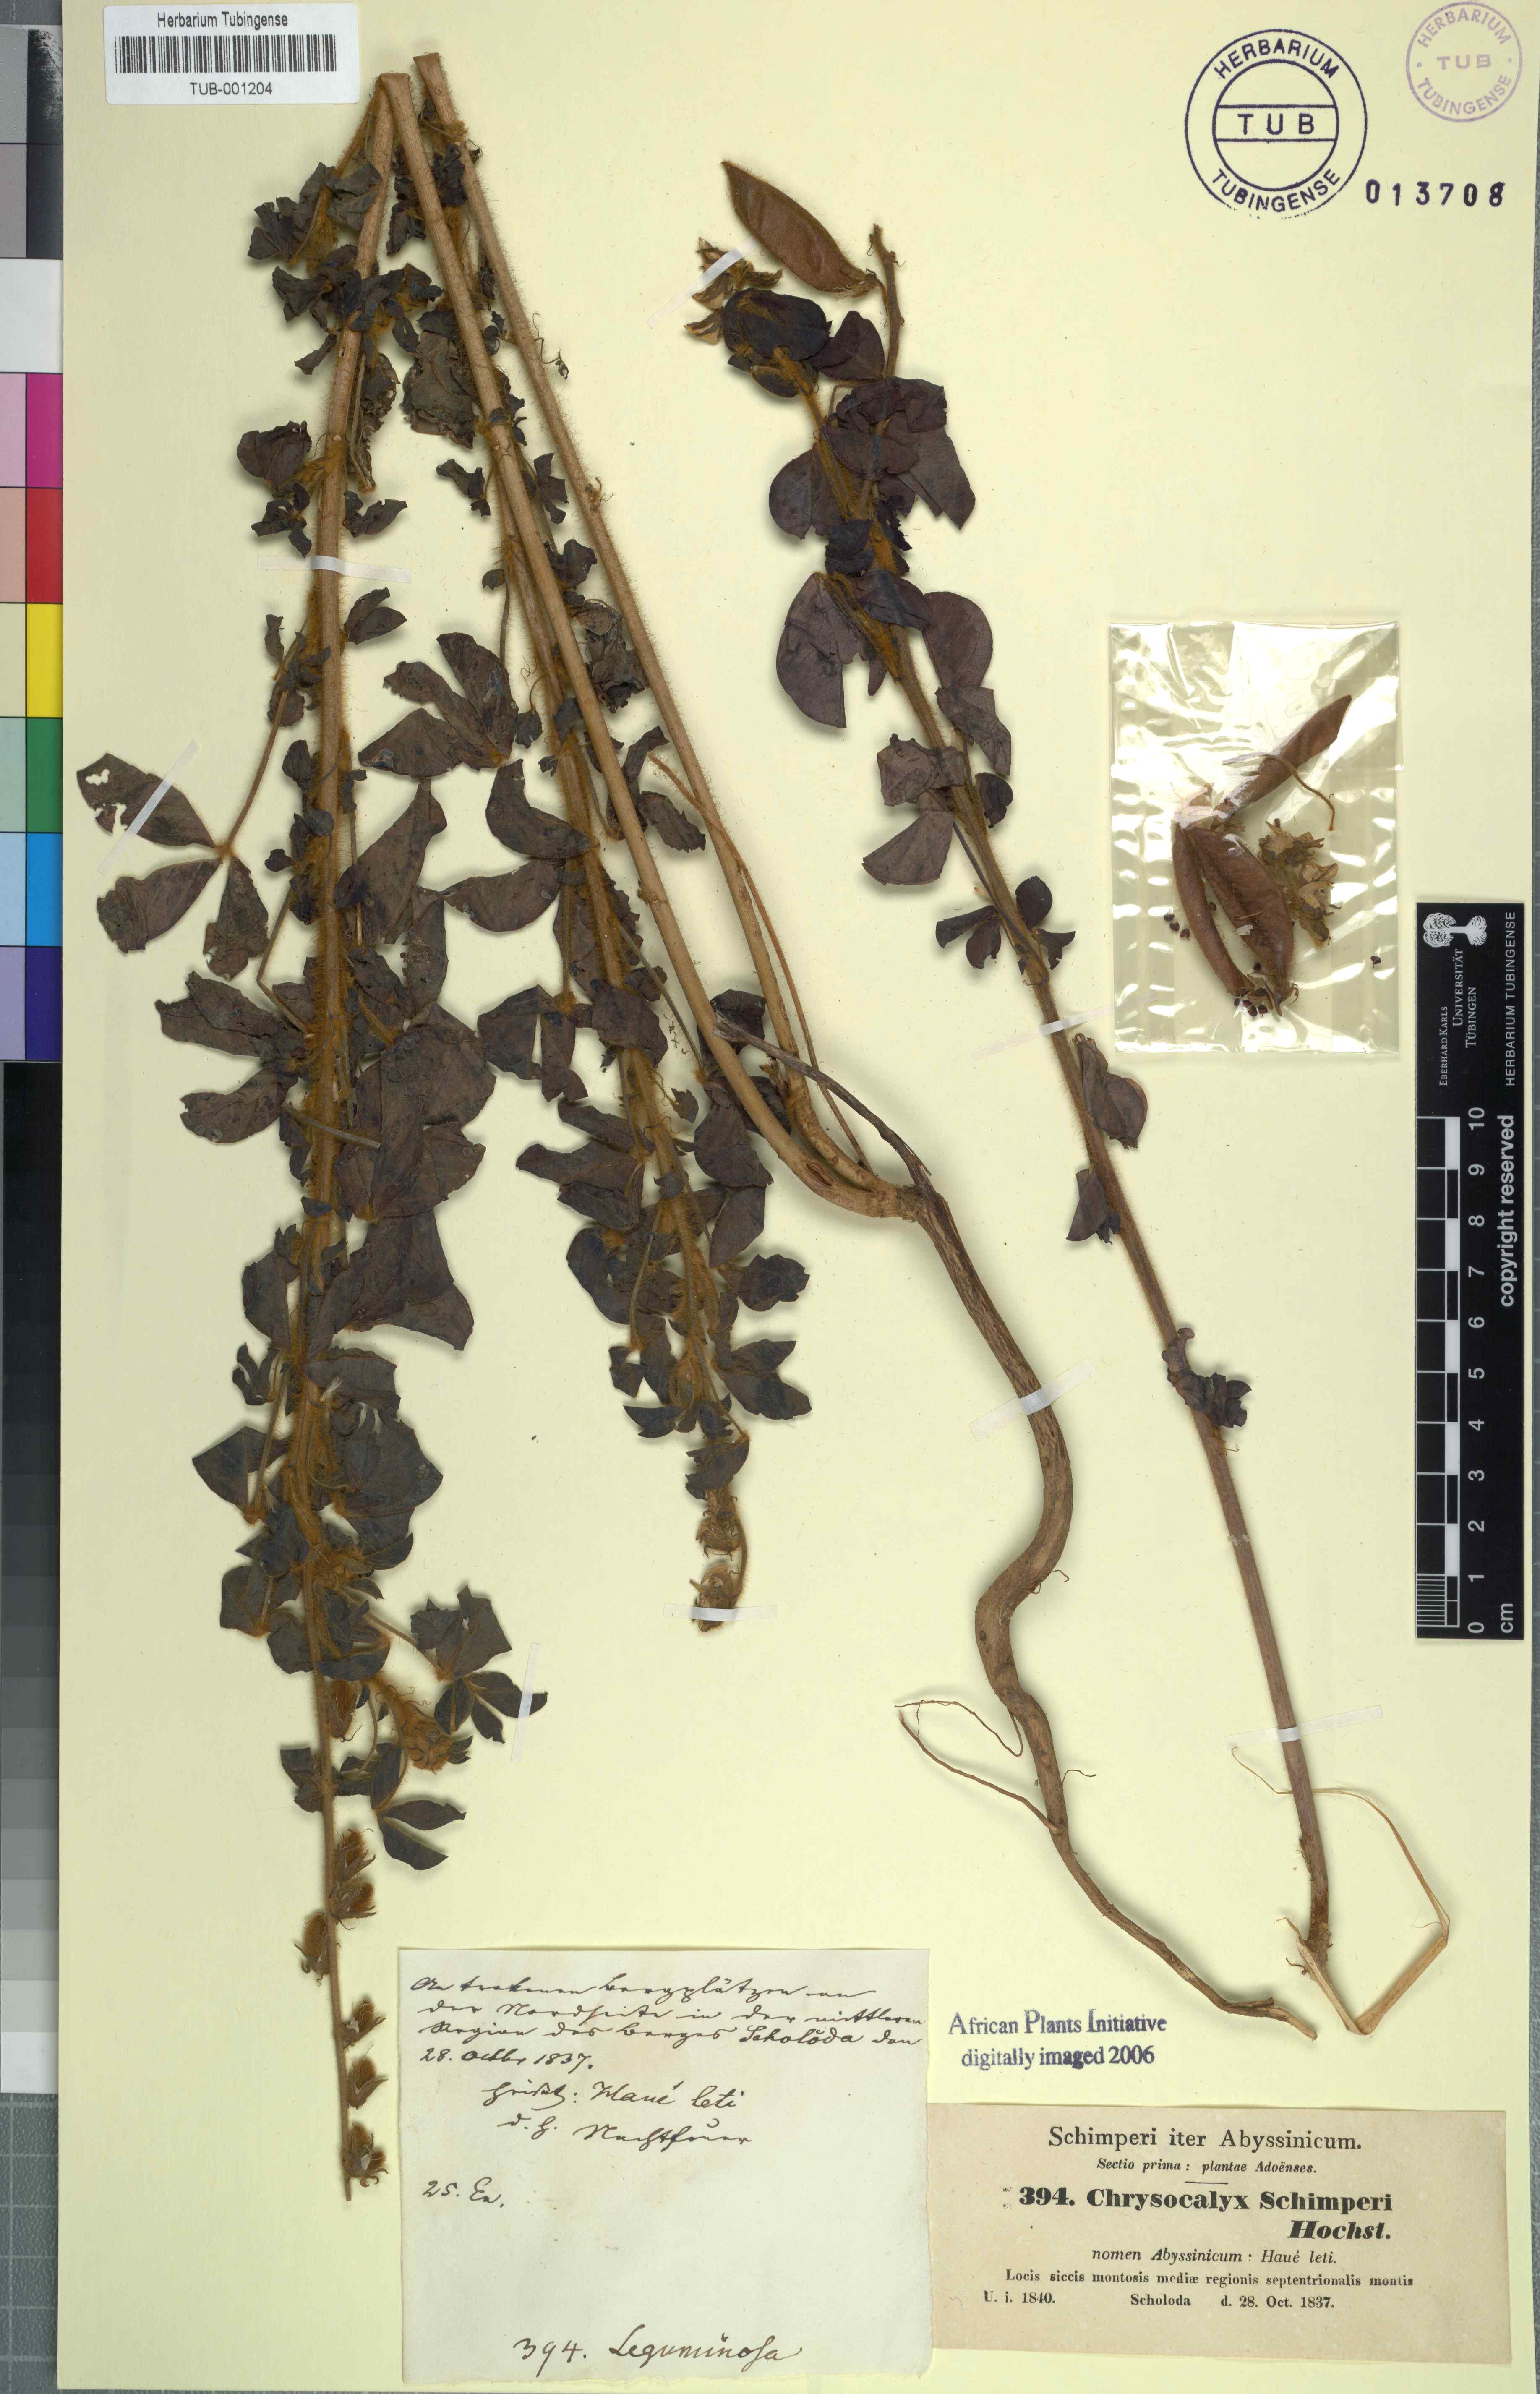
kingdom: Plantae
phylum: Tracheophyta
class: Magnoliopsida
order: Fabales
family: Fabaceae
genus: Crotalaria
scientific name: Crotalaria incana
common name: Shakeshake
